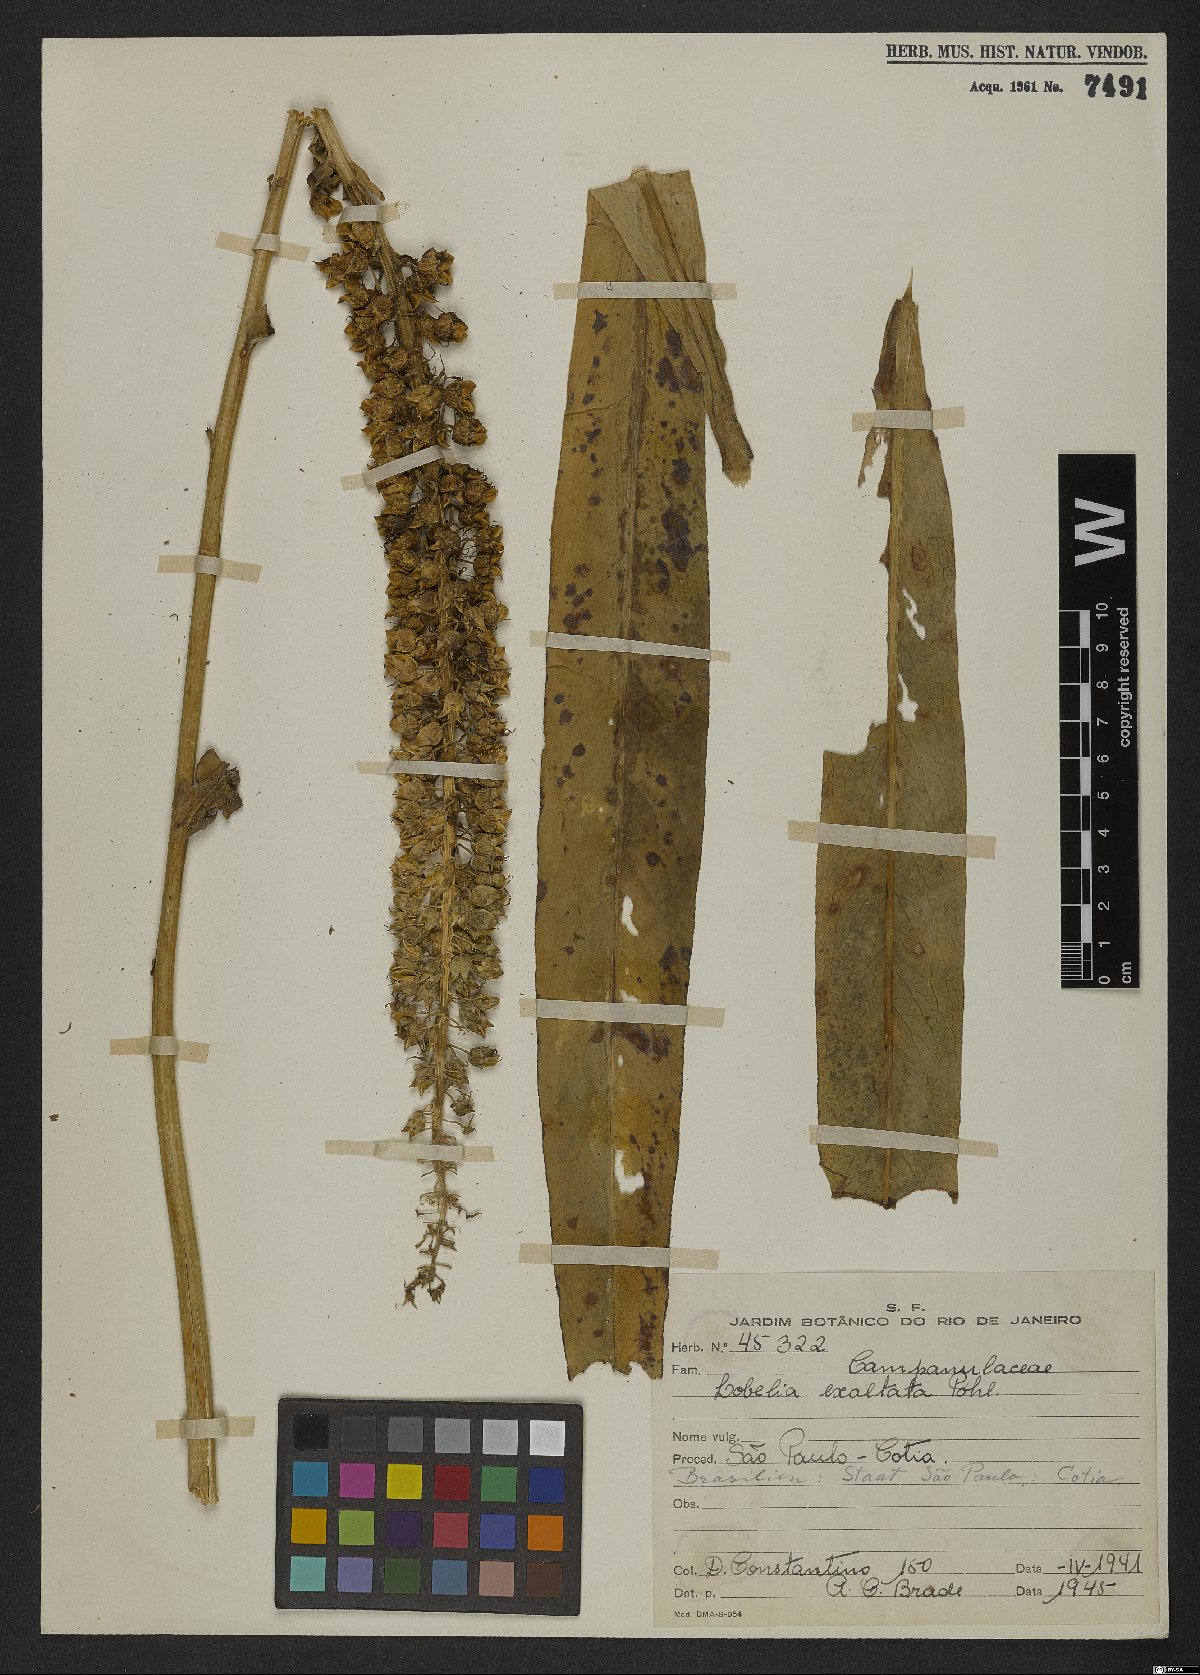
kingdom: Plantae
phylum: Tracheophyta
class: Magnoliopsida
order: Asterales
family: Campanulaceae
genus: Lobelia
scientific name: Lobelia exaltata
